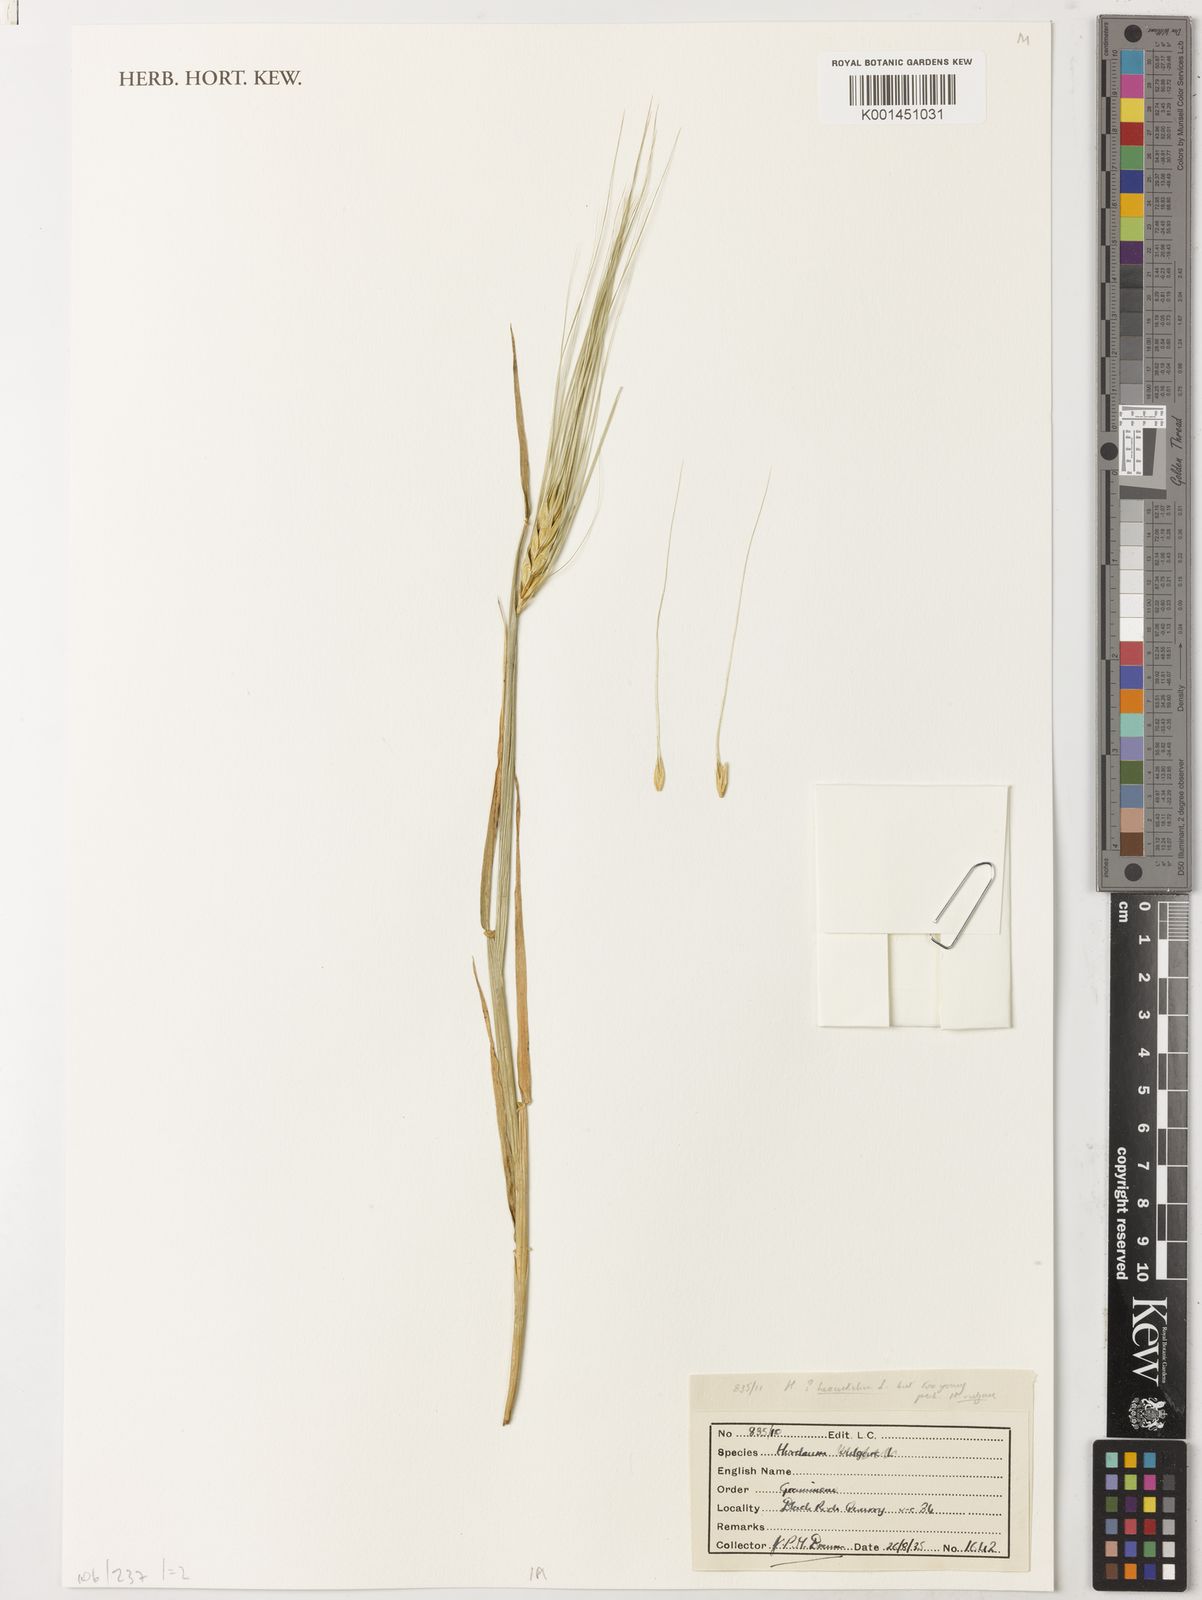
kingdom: Plantae
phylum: Tracheophyta
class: Liliopsida
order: Poales
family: Poaceae
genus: Hordeum
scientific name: Hordeum vulgare
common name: Common barley
